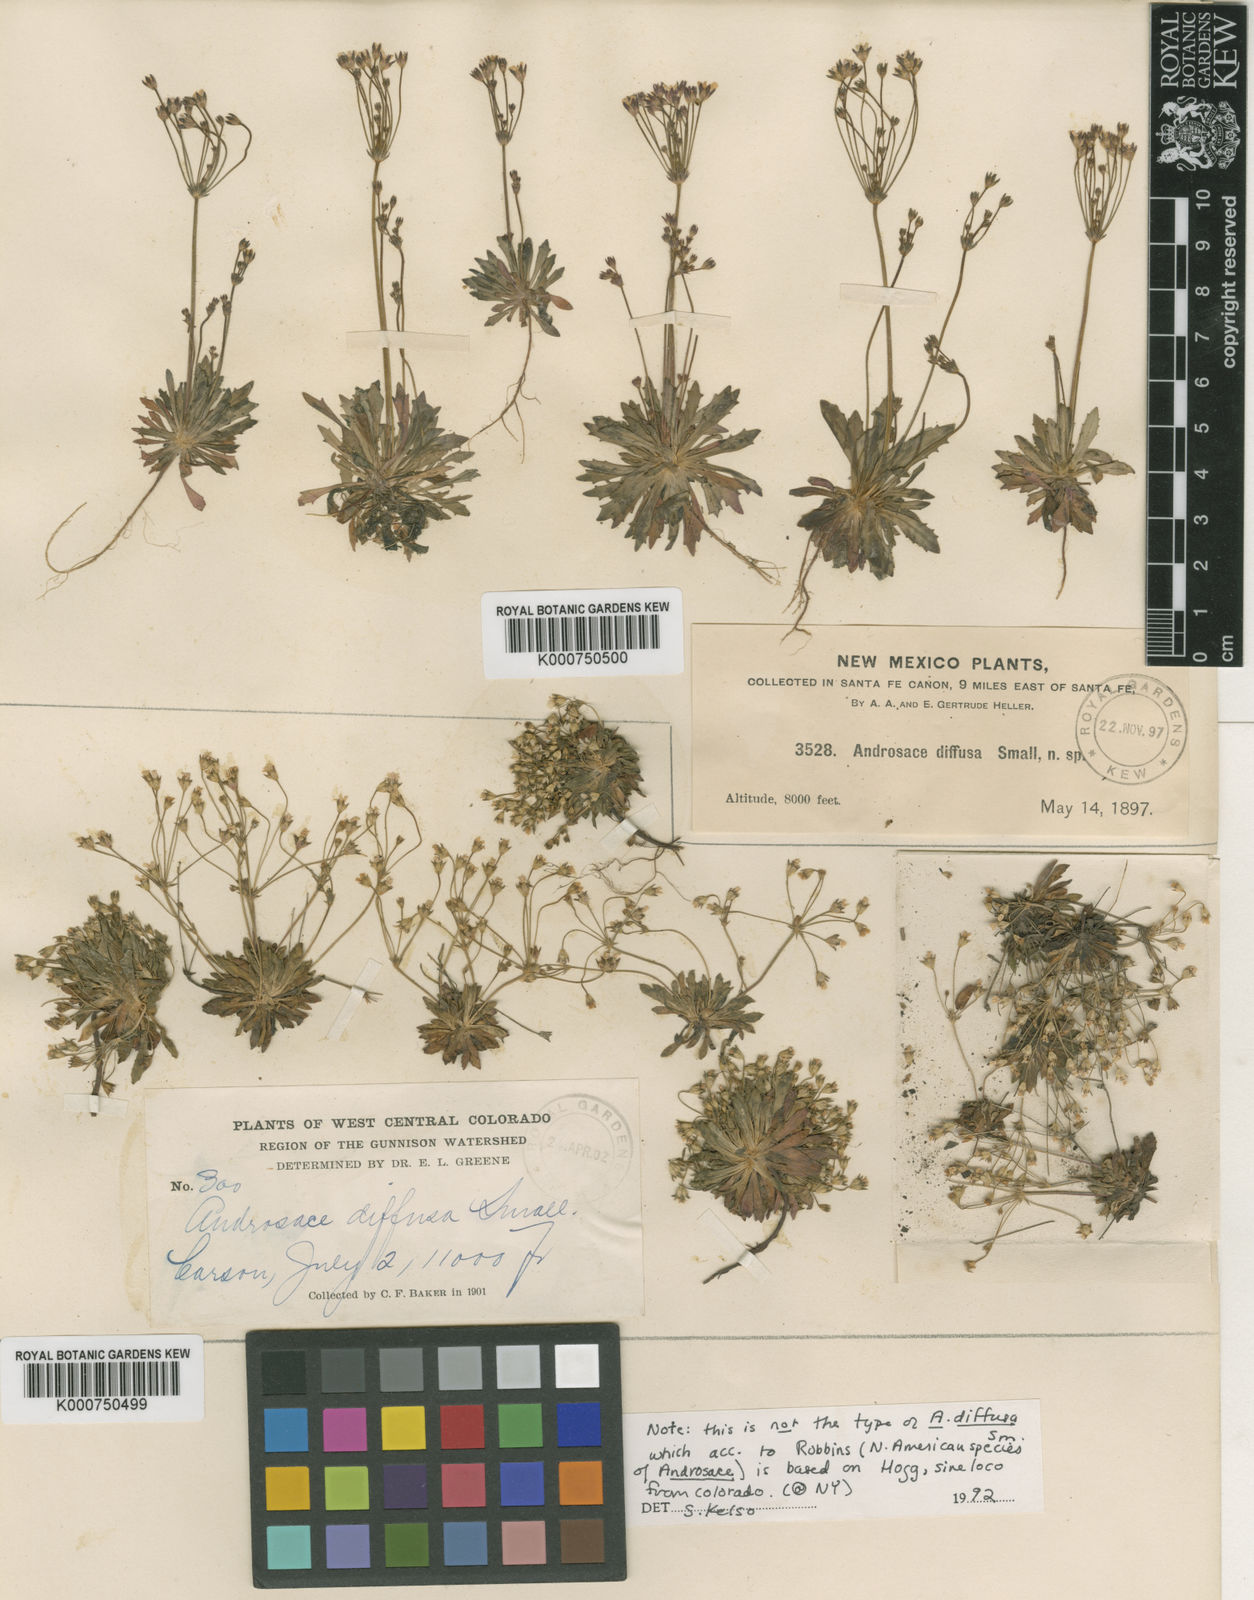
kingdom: Plantae
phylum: Tracheophyta
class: Magnoliopsida
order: Ericales
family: Primulaceae
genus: Androsace
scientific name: Androsace septentrionalis
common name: Hairy northern fairy-candelabra
